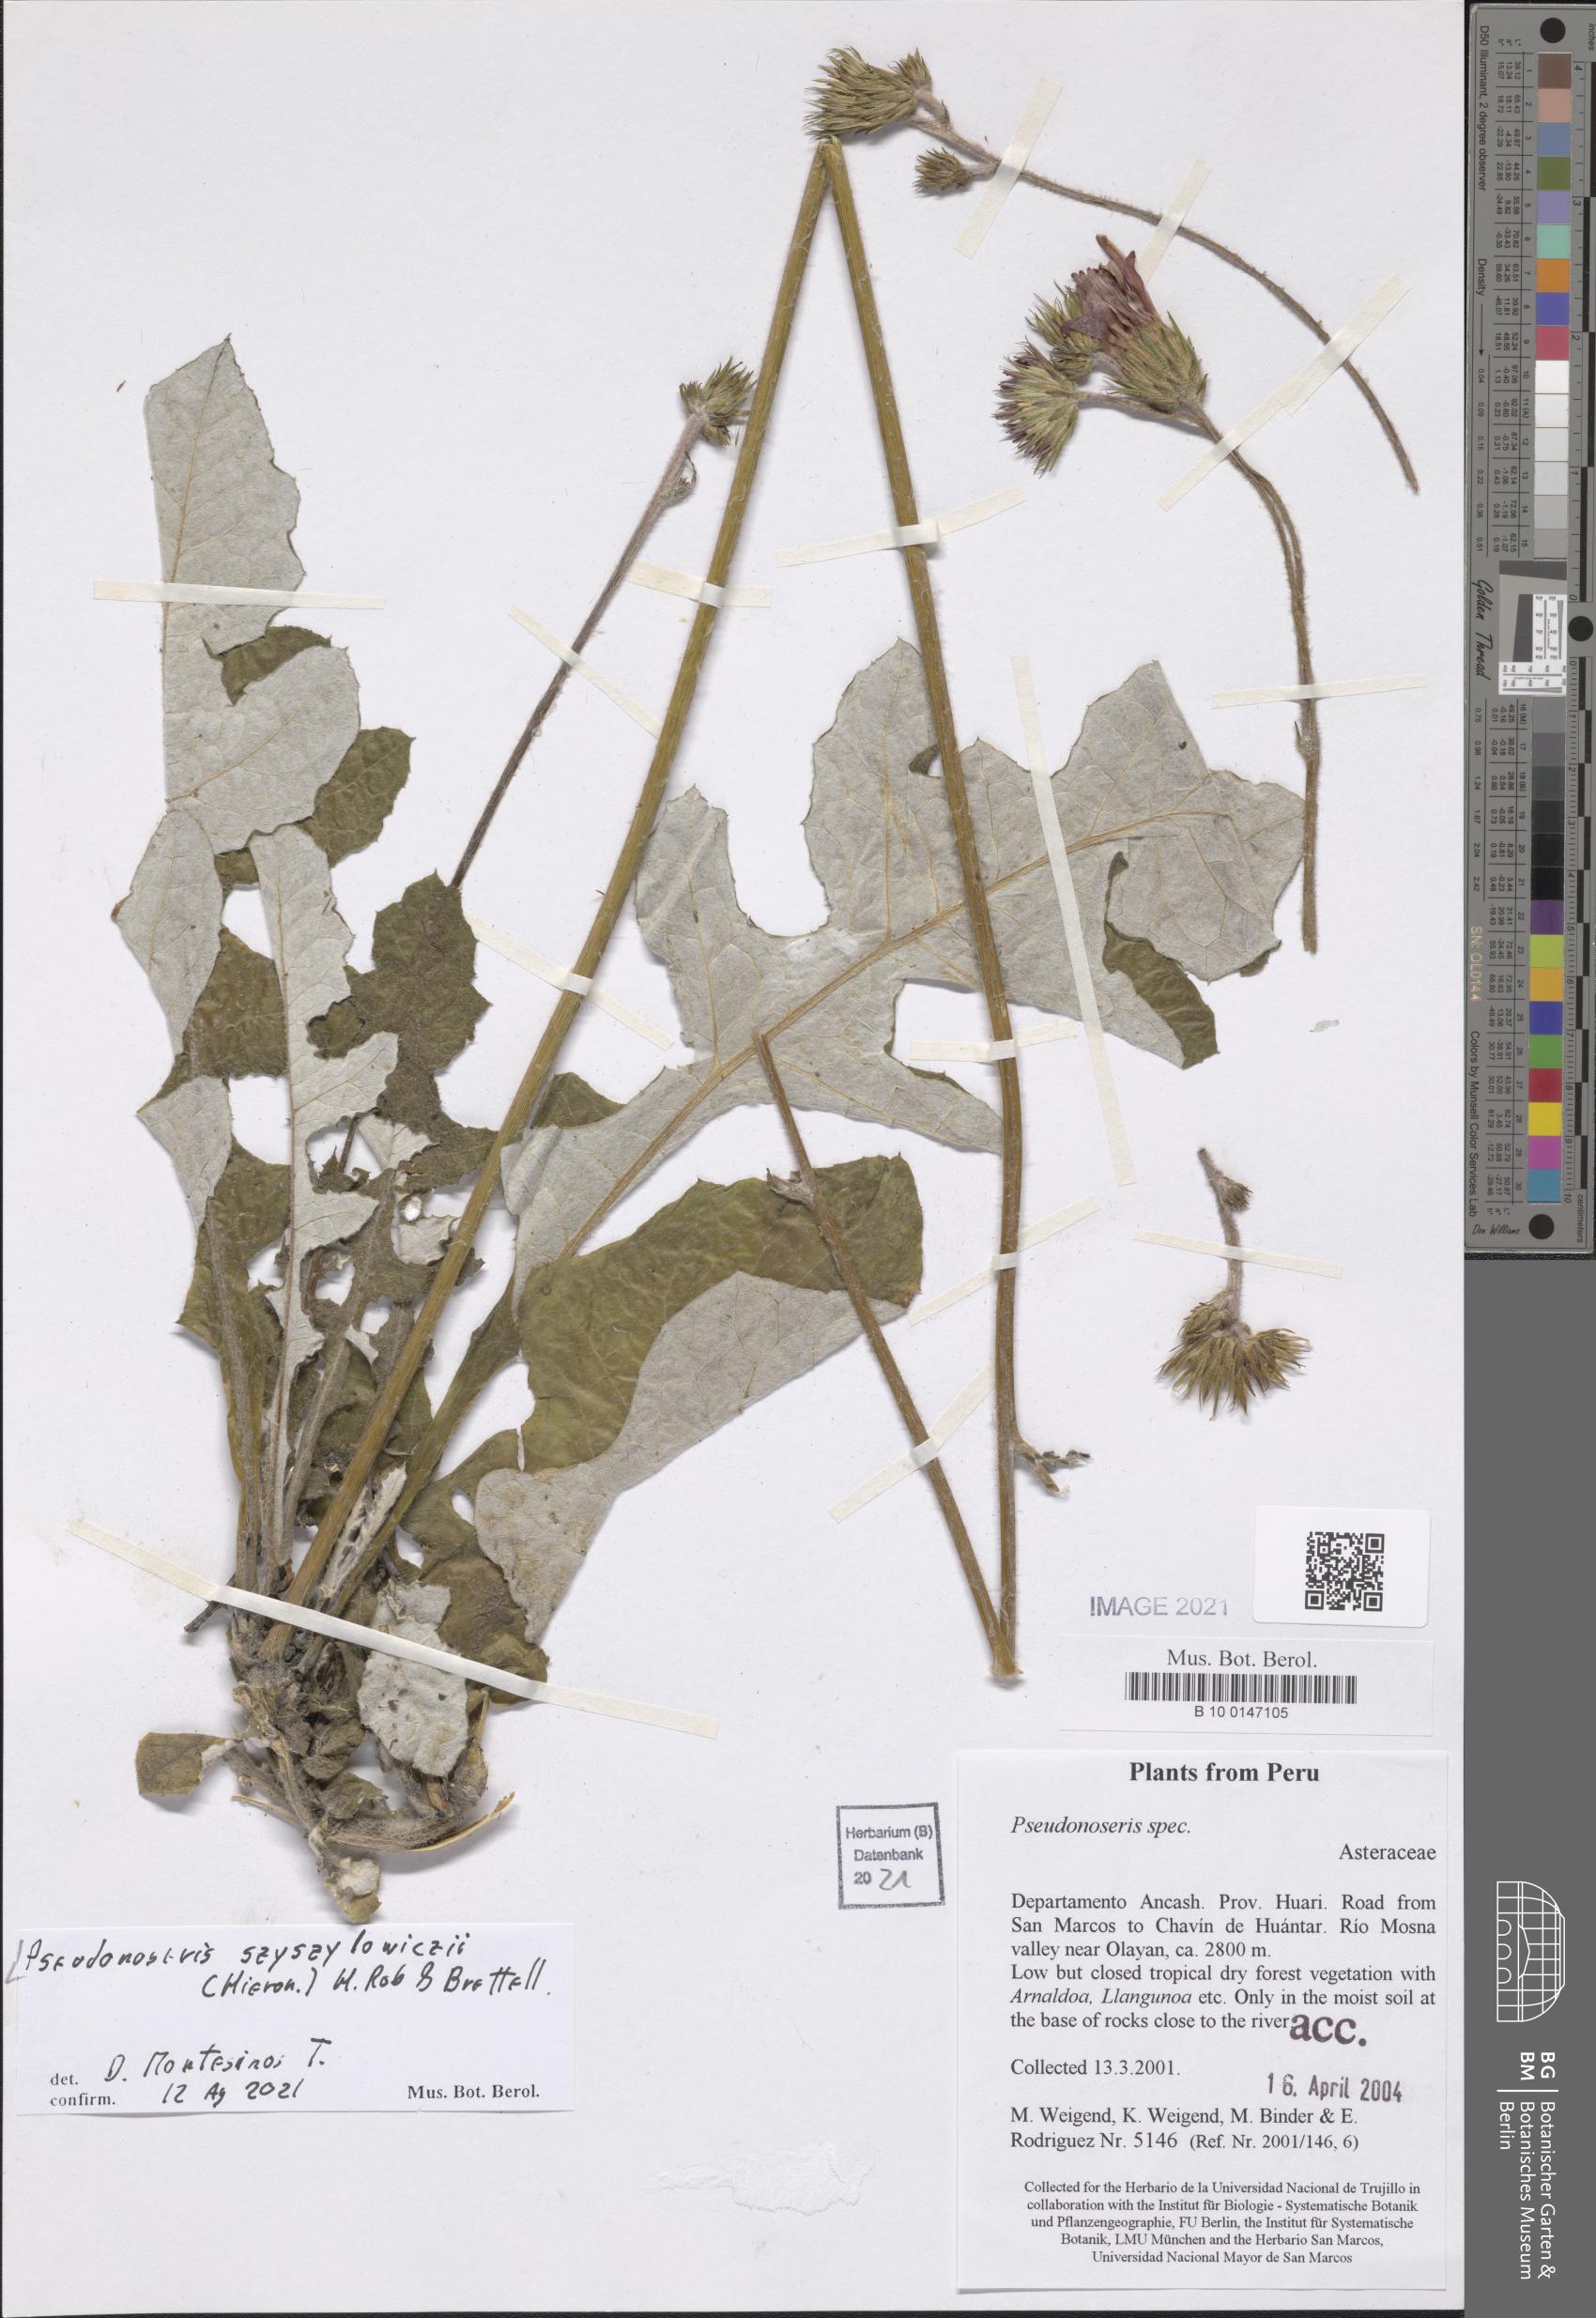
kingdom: Plantae
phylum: Tracheophyta
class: Magnoliopsida
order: Asterales
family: Asteraceae
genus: Pseudonoseris
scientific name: Pseudonoseris szyszylowiczii
